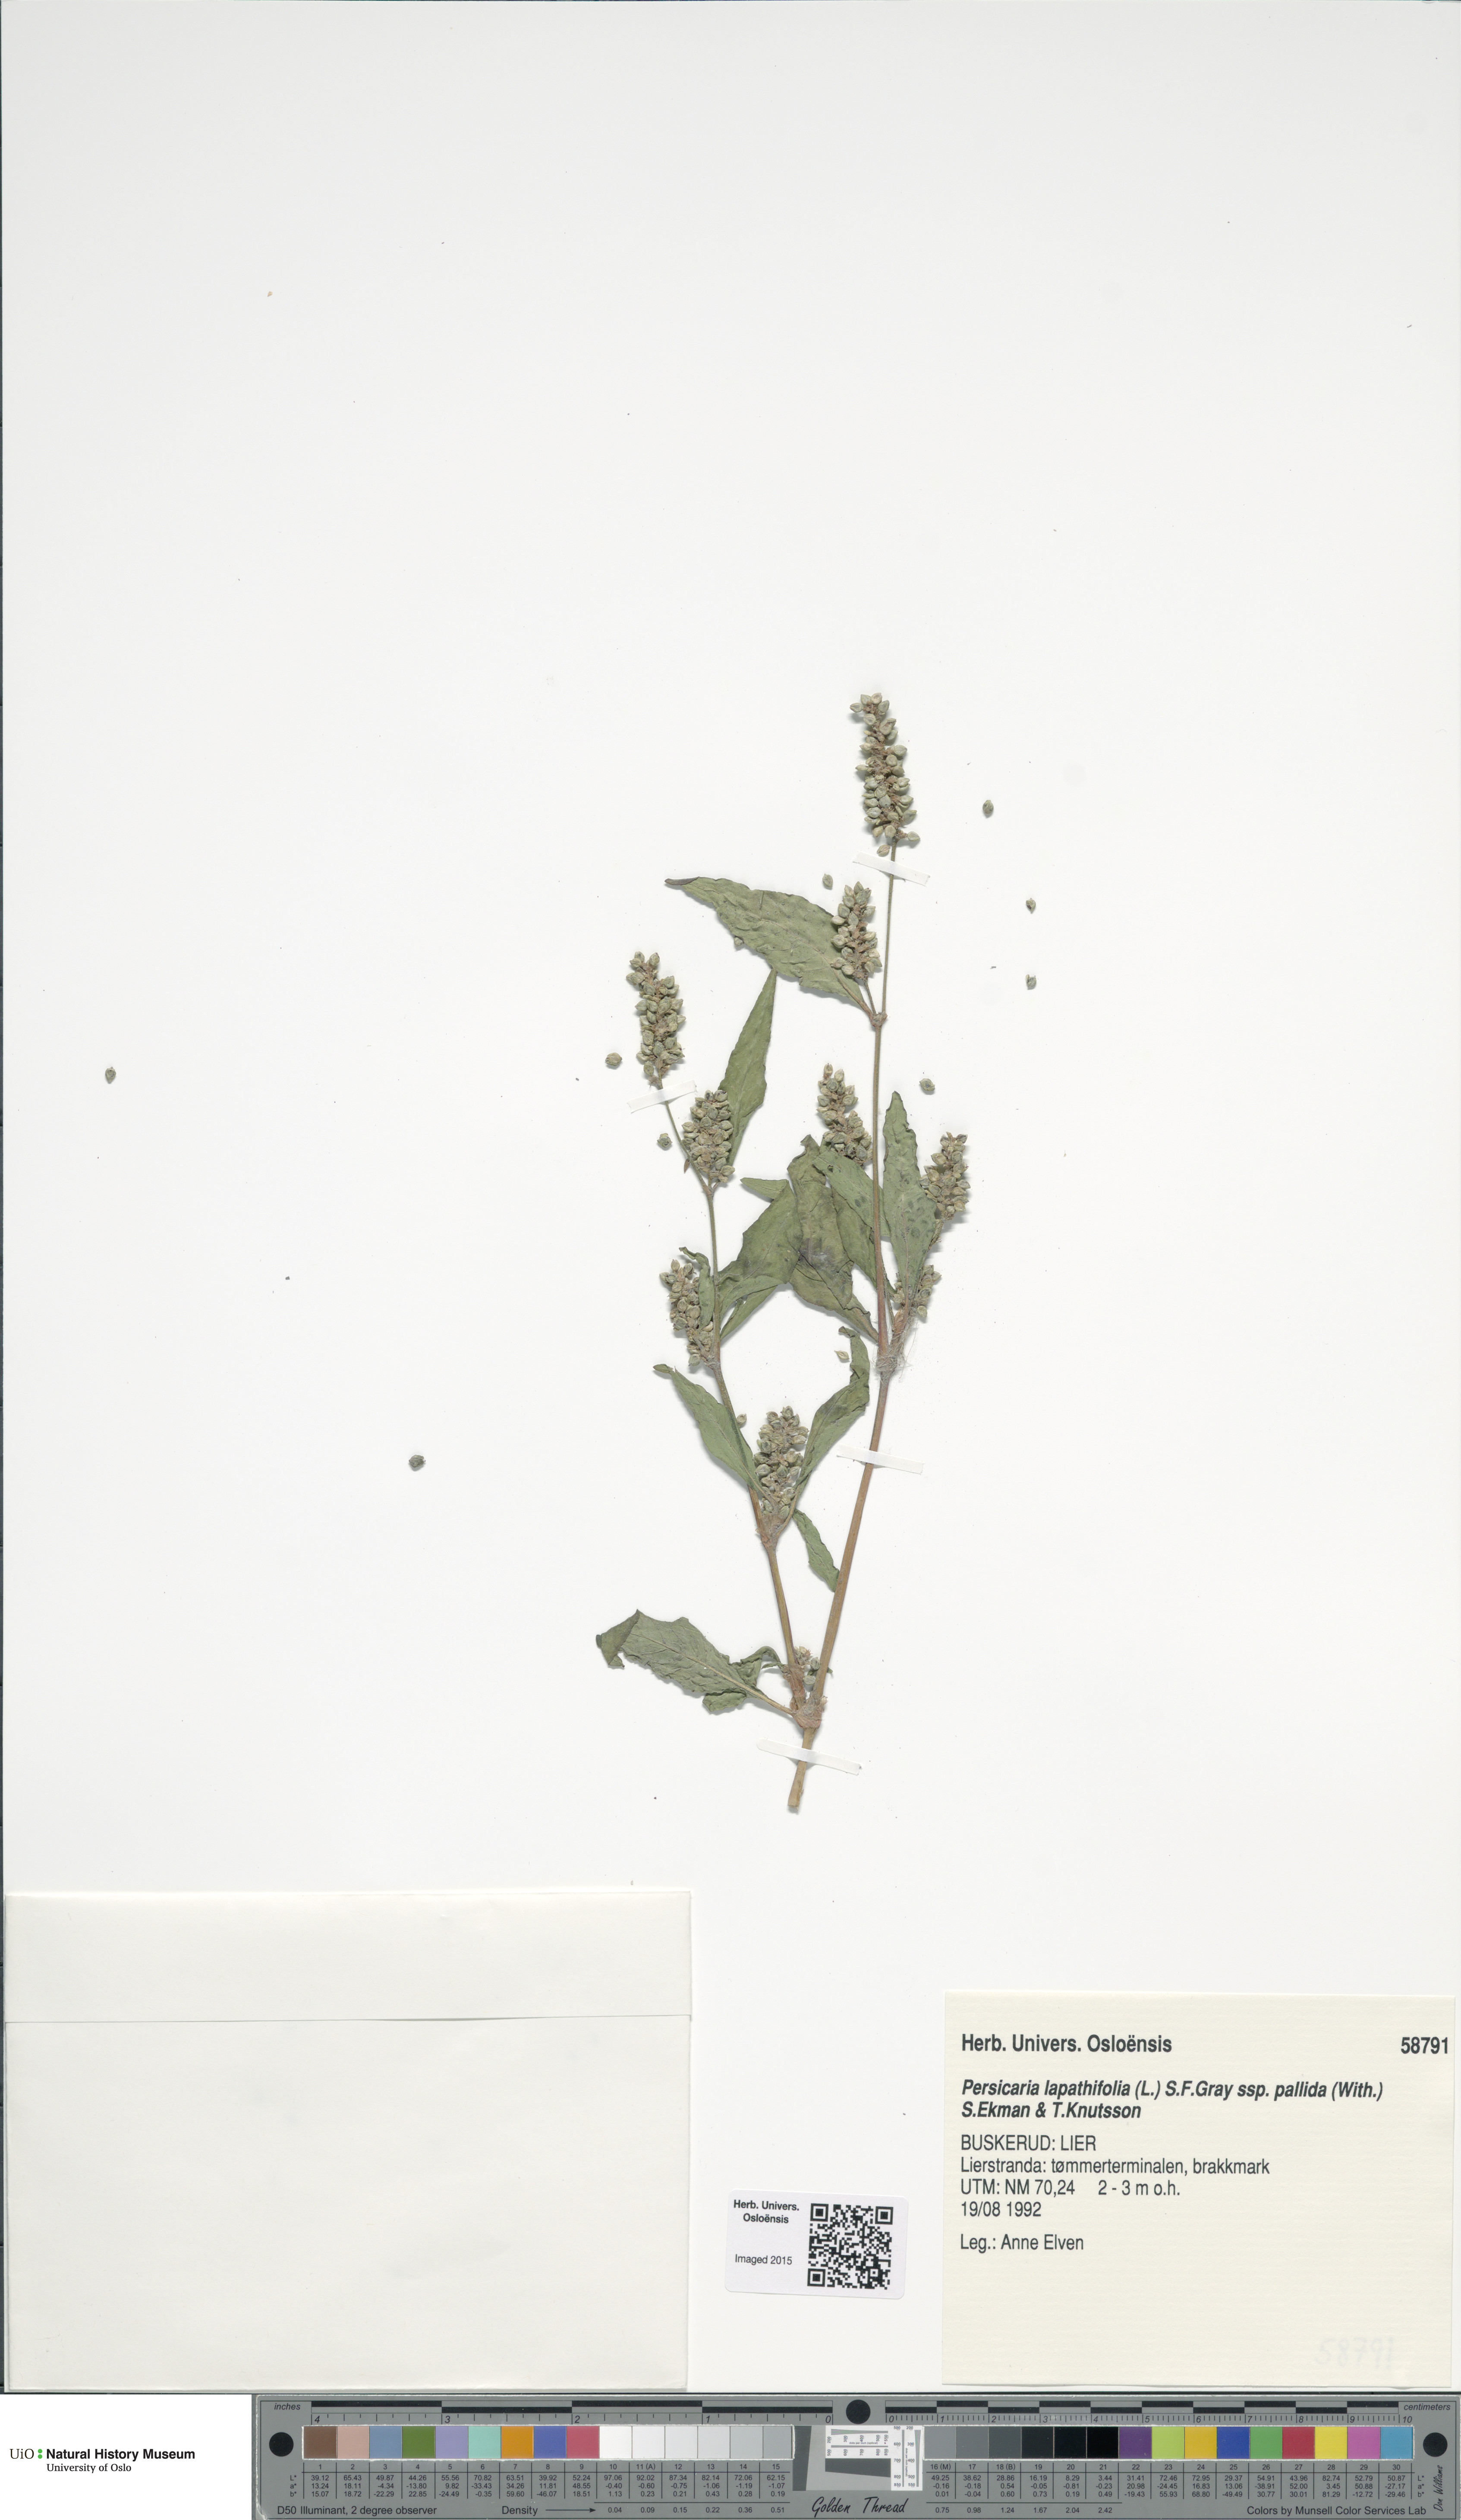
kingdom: Plantae
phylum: Tracheophyta
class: Magnoliopsida
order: Caryophyllales
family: Polygonaceae
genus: Persicaria
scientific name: Persicaria lapathifolia
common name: Curlytop knotweed
